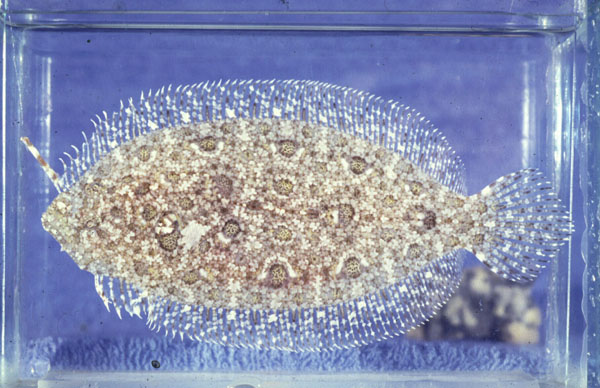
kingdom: Animalia
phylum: Chordata
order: Pleuronectiformes
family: Bothidae
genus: Asterorhombus
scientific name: Asterorhombus cocosensis
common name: Angler flatfish
